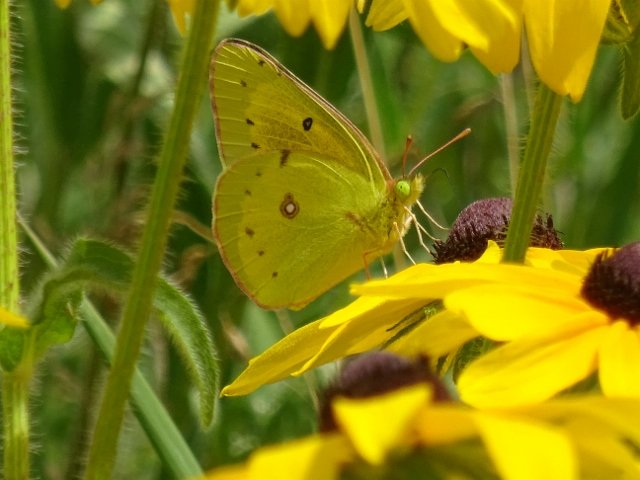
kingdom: Animalia
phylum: Arthropoda
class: Insecta
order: Lepidoptera
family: Pieridae
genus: Colias
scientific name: Colias philodice
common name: Clouded Sulphur
